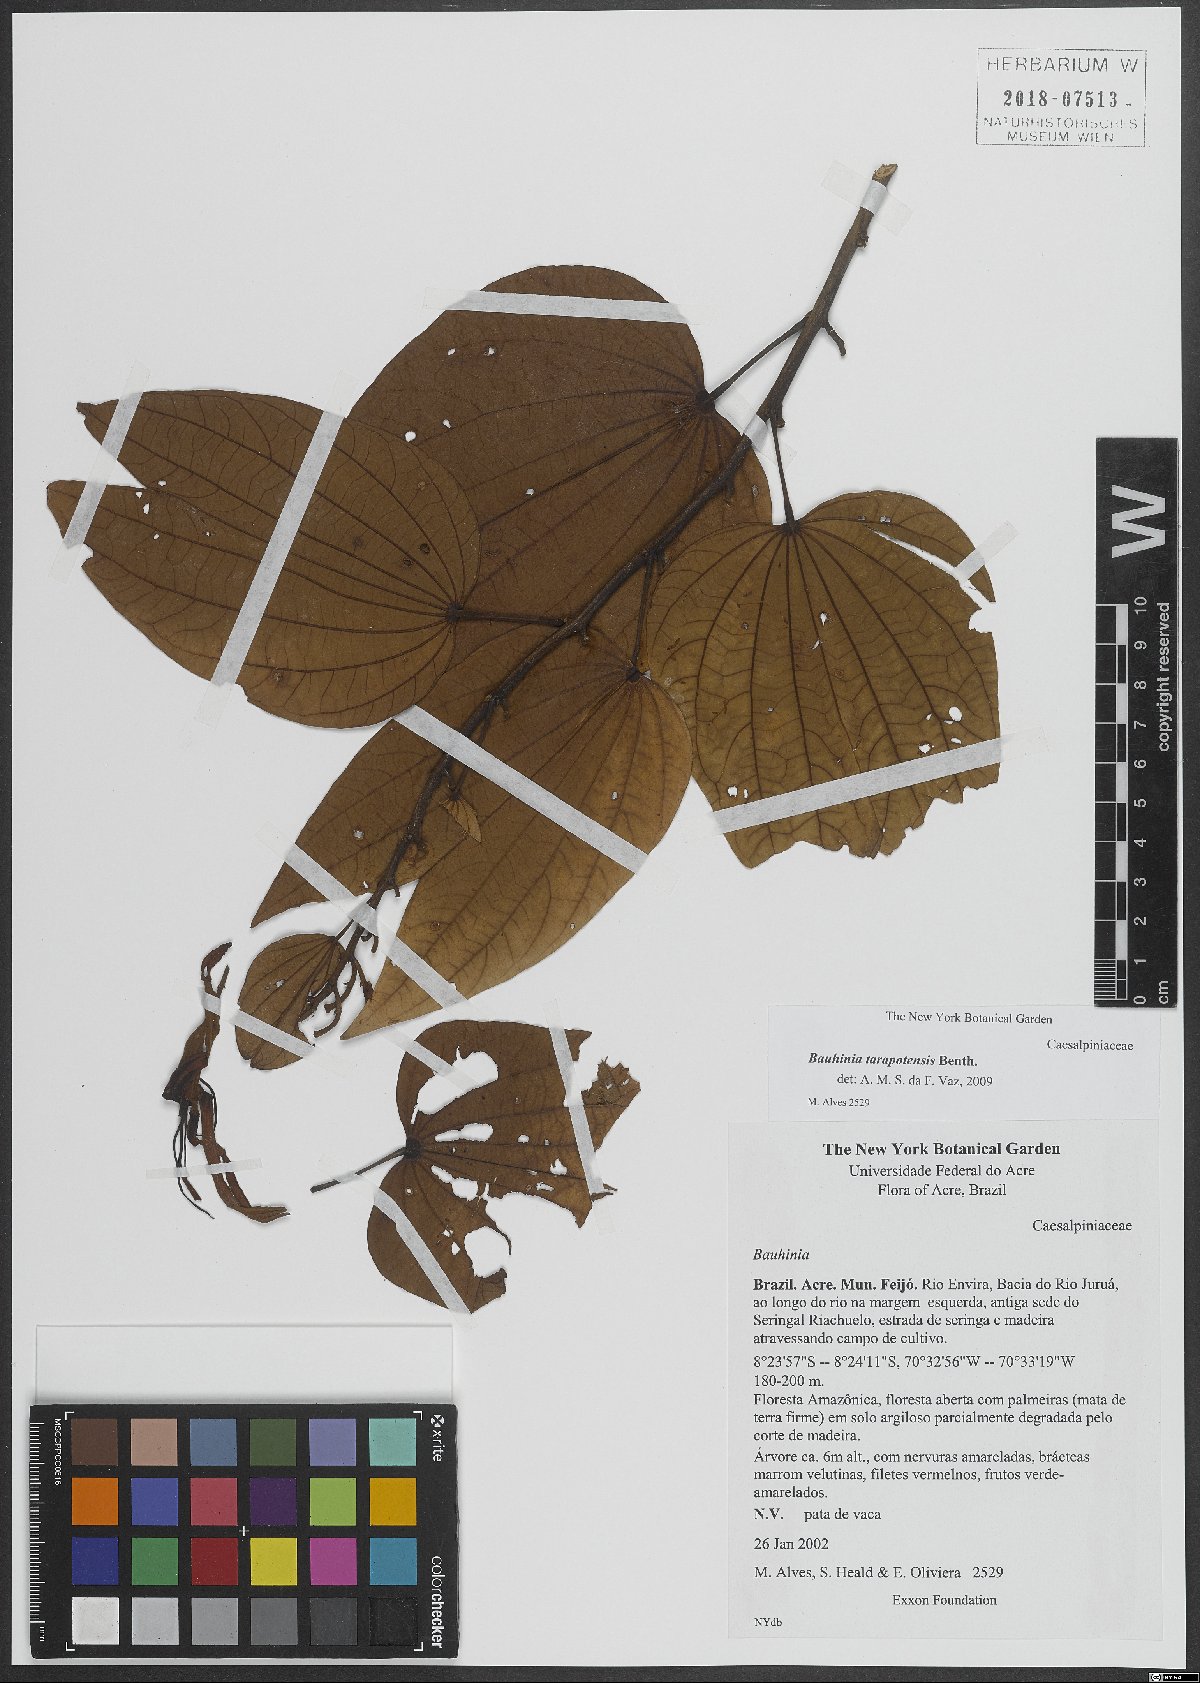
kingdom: Plantae
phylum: Tracheophyta
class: Magnoliopsida
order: Fabales
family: Fabaceae
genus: Bauhinia
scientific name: Bauhinia tarapotensis
